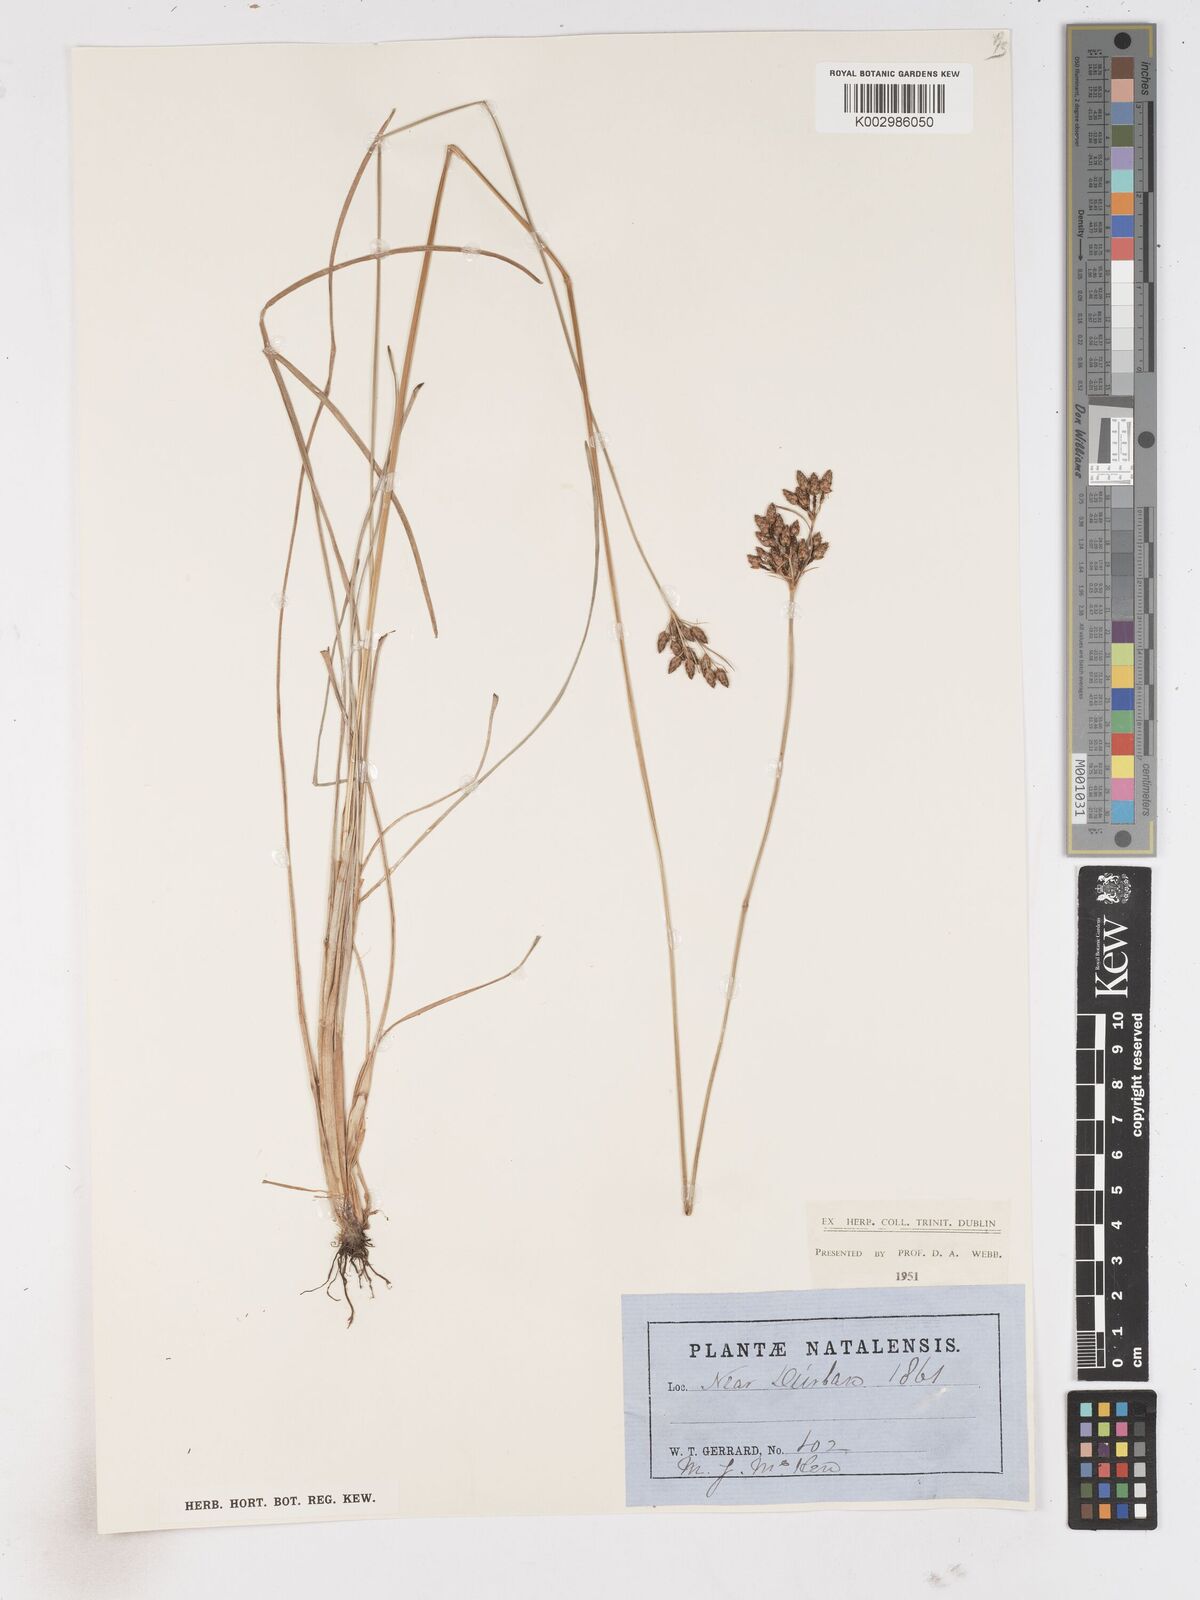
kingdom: Plantae
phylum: Tracheophyta
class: Liliopsida
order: Poales
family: Cyperaceae
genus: Fimbristylis
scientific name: Fimbristylis
